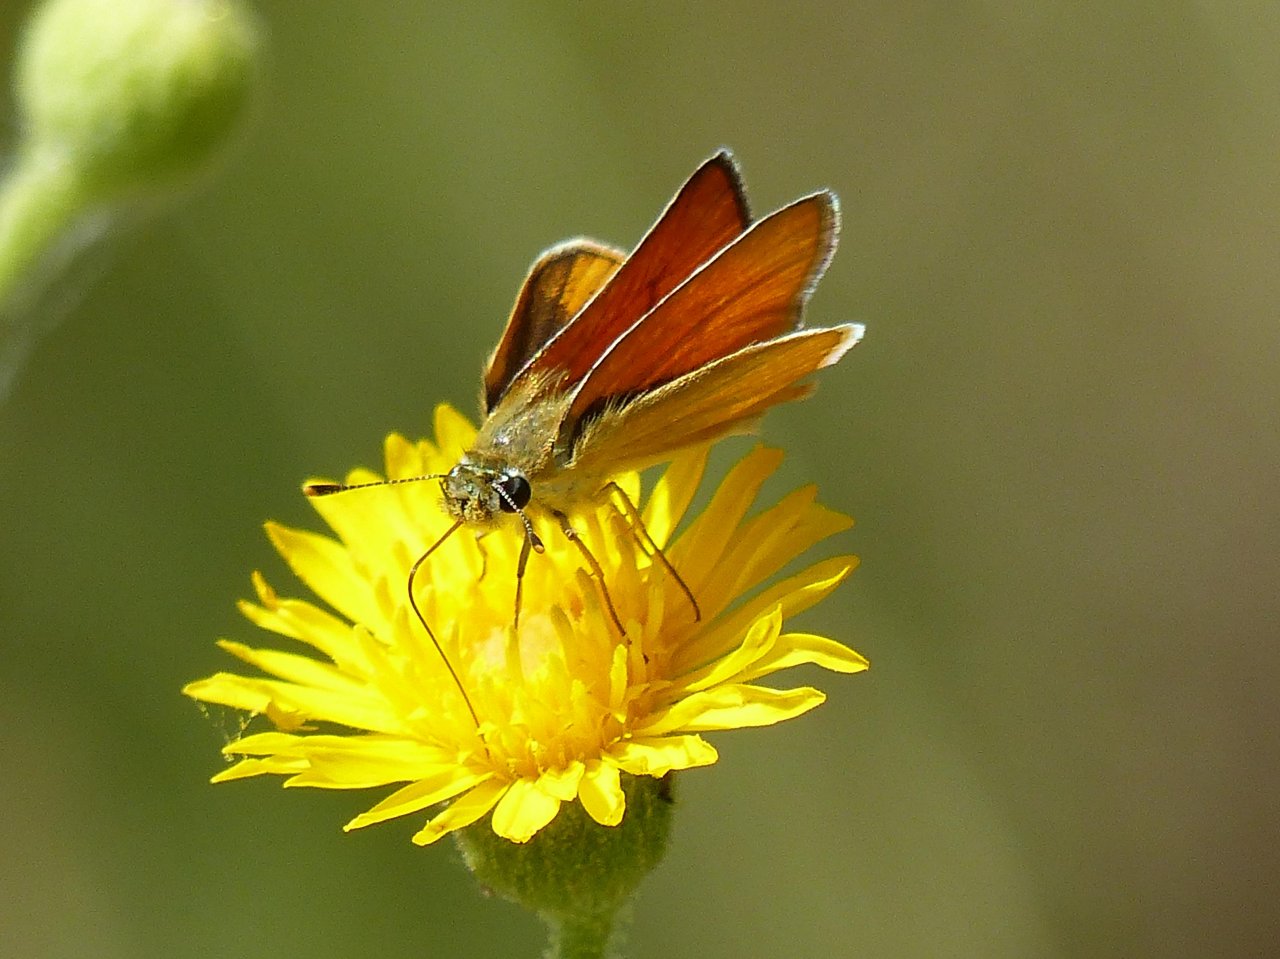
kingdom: Animalia
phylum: Arthropoda
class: Insecta
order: Lepidoptera
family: Hesperiidae
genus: Copaeodes
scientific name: Copaeodes aurantiaca
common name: Orange Skipperling
